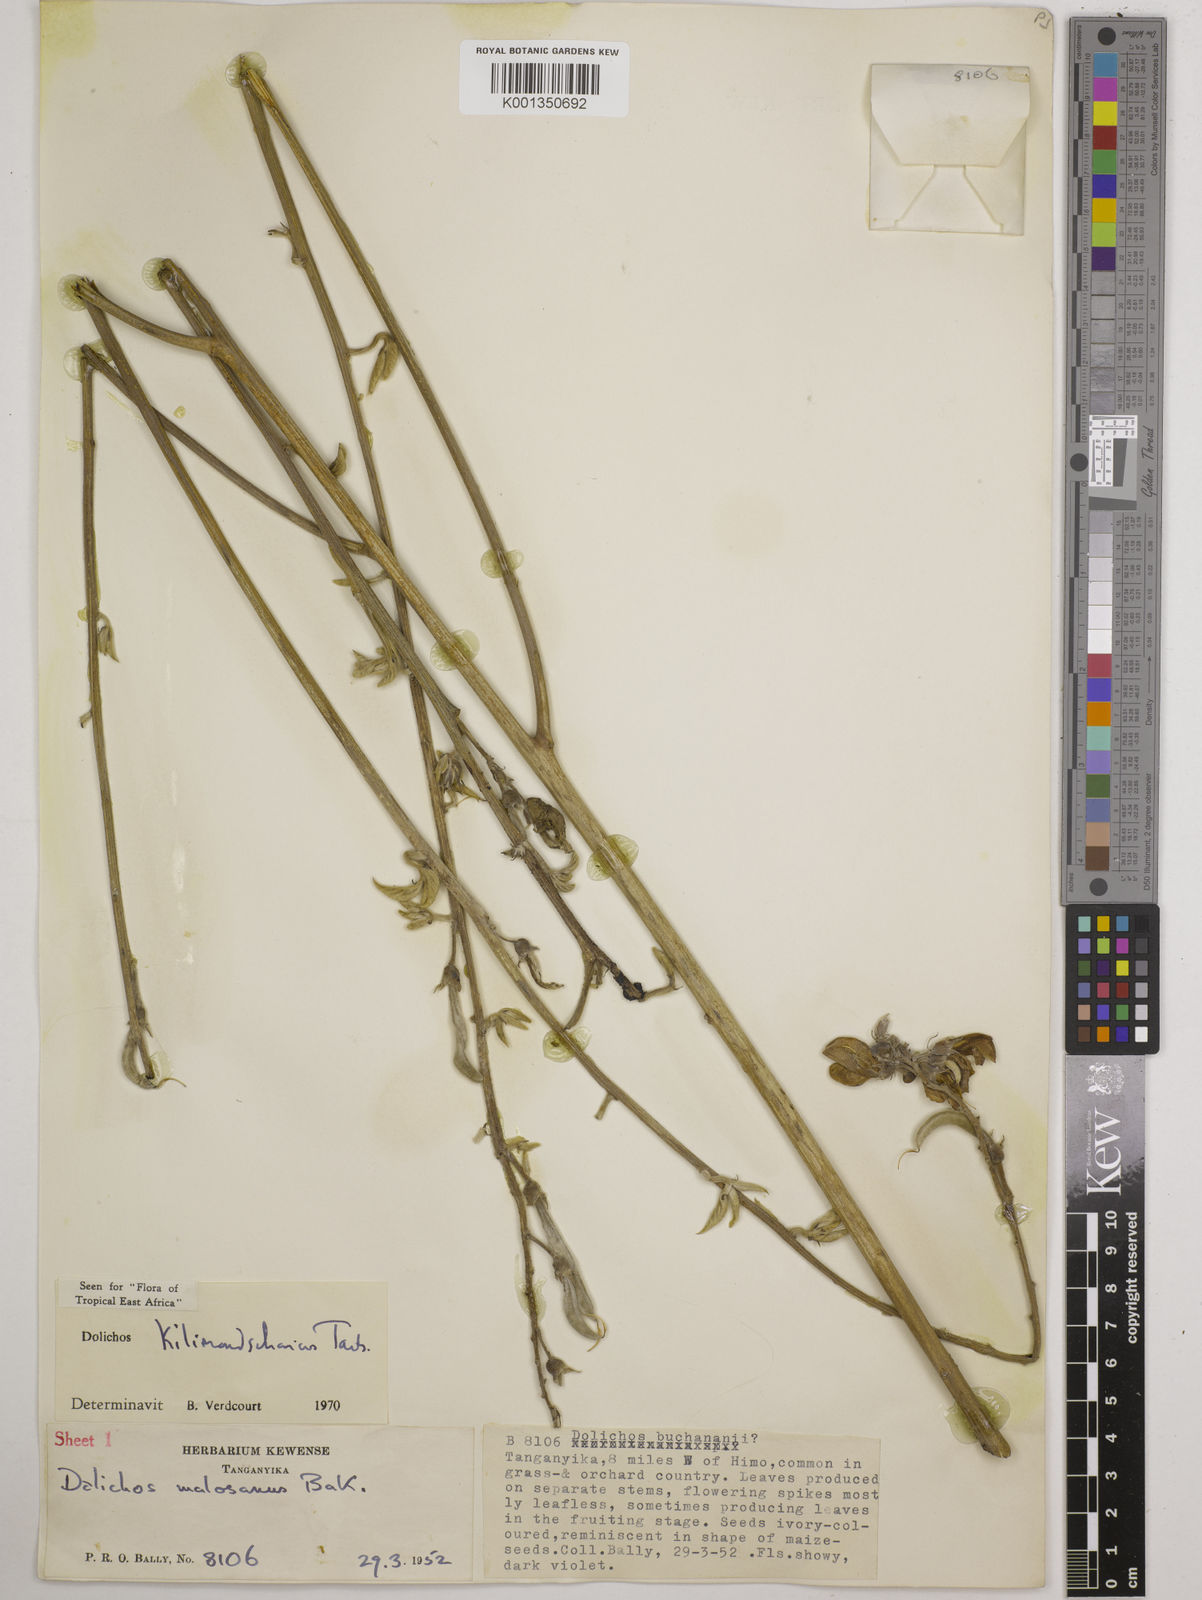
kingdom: Plantae
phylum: Tracheophyta
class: Magnoliopsida
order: Fabales
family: Fabaceae
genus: Dolichos
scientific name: Dolichos kilimandscharicus
